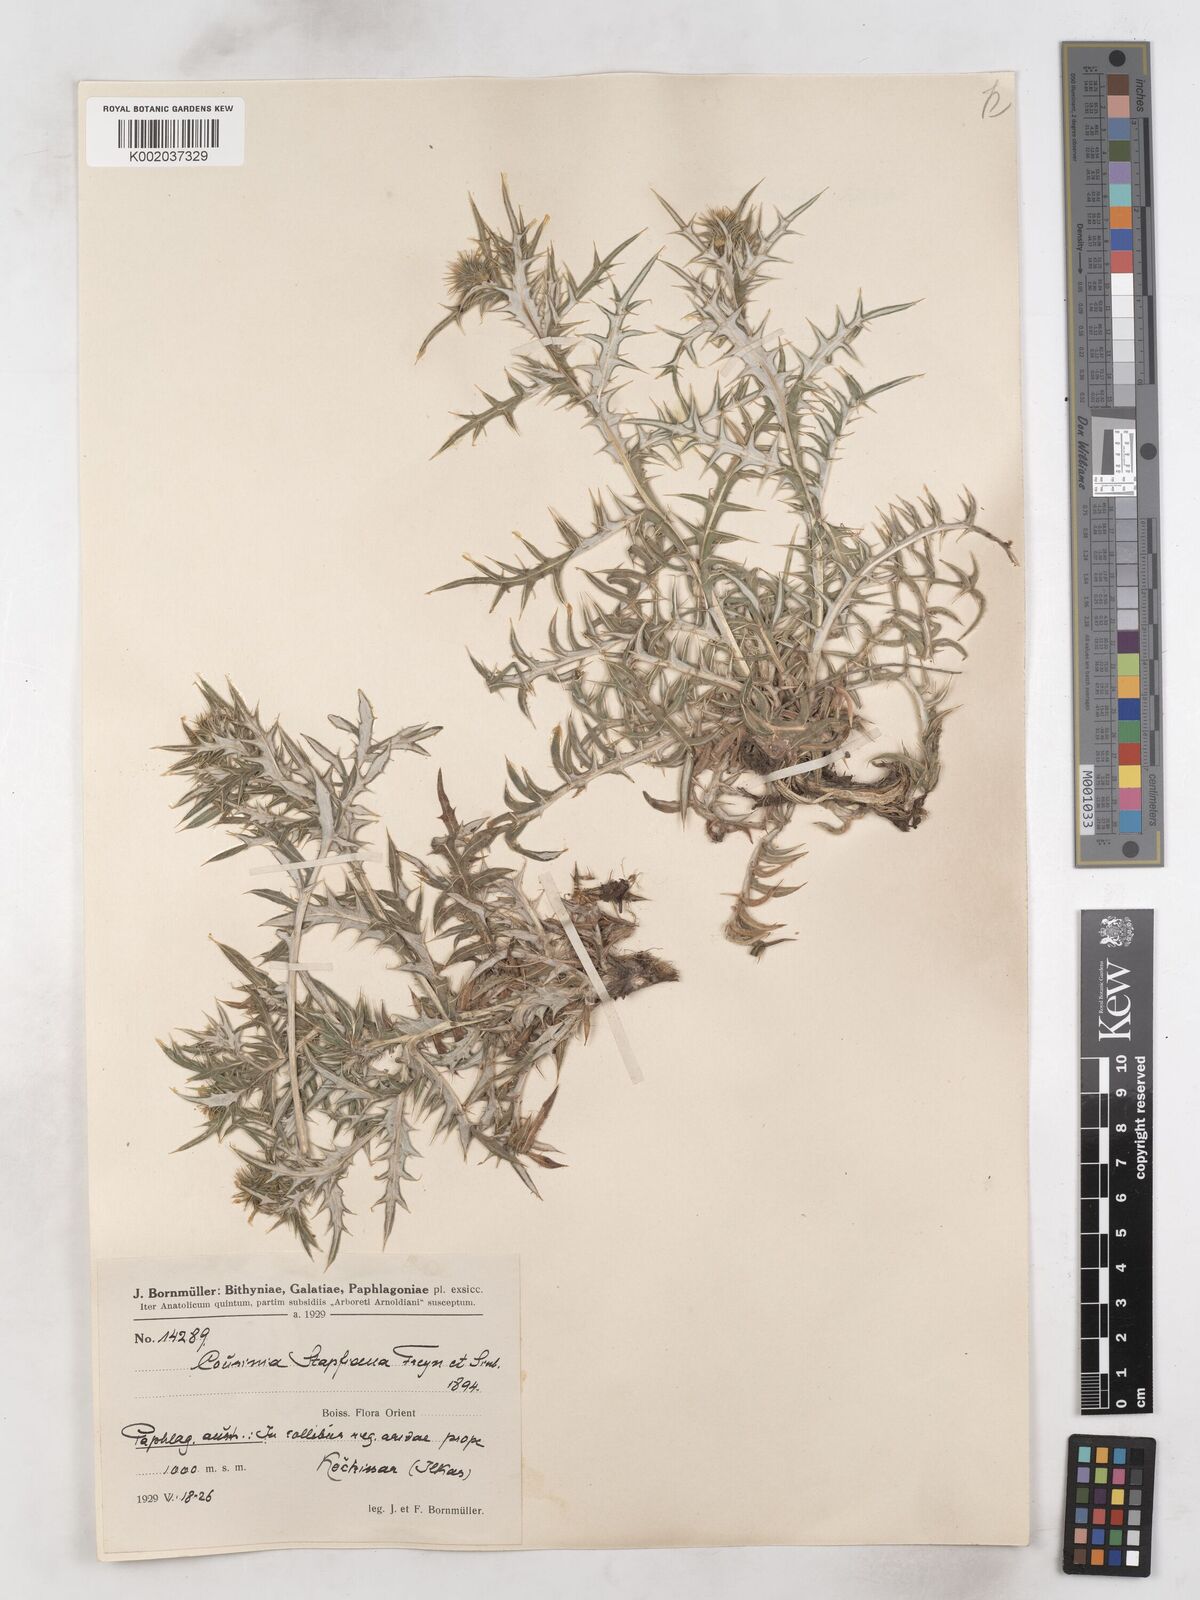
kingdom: Plantae
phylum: Tracheophyta
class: Magnoliopsida
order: Asterales
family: Asteraceae
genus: Cousinia
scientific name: Cousinia stapfiana
